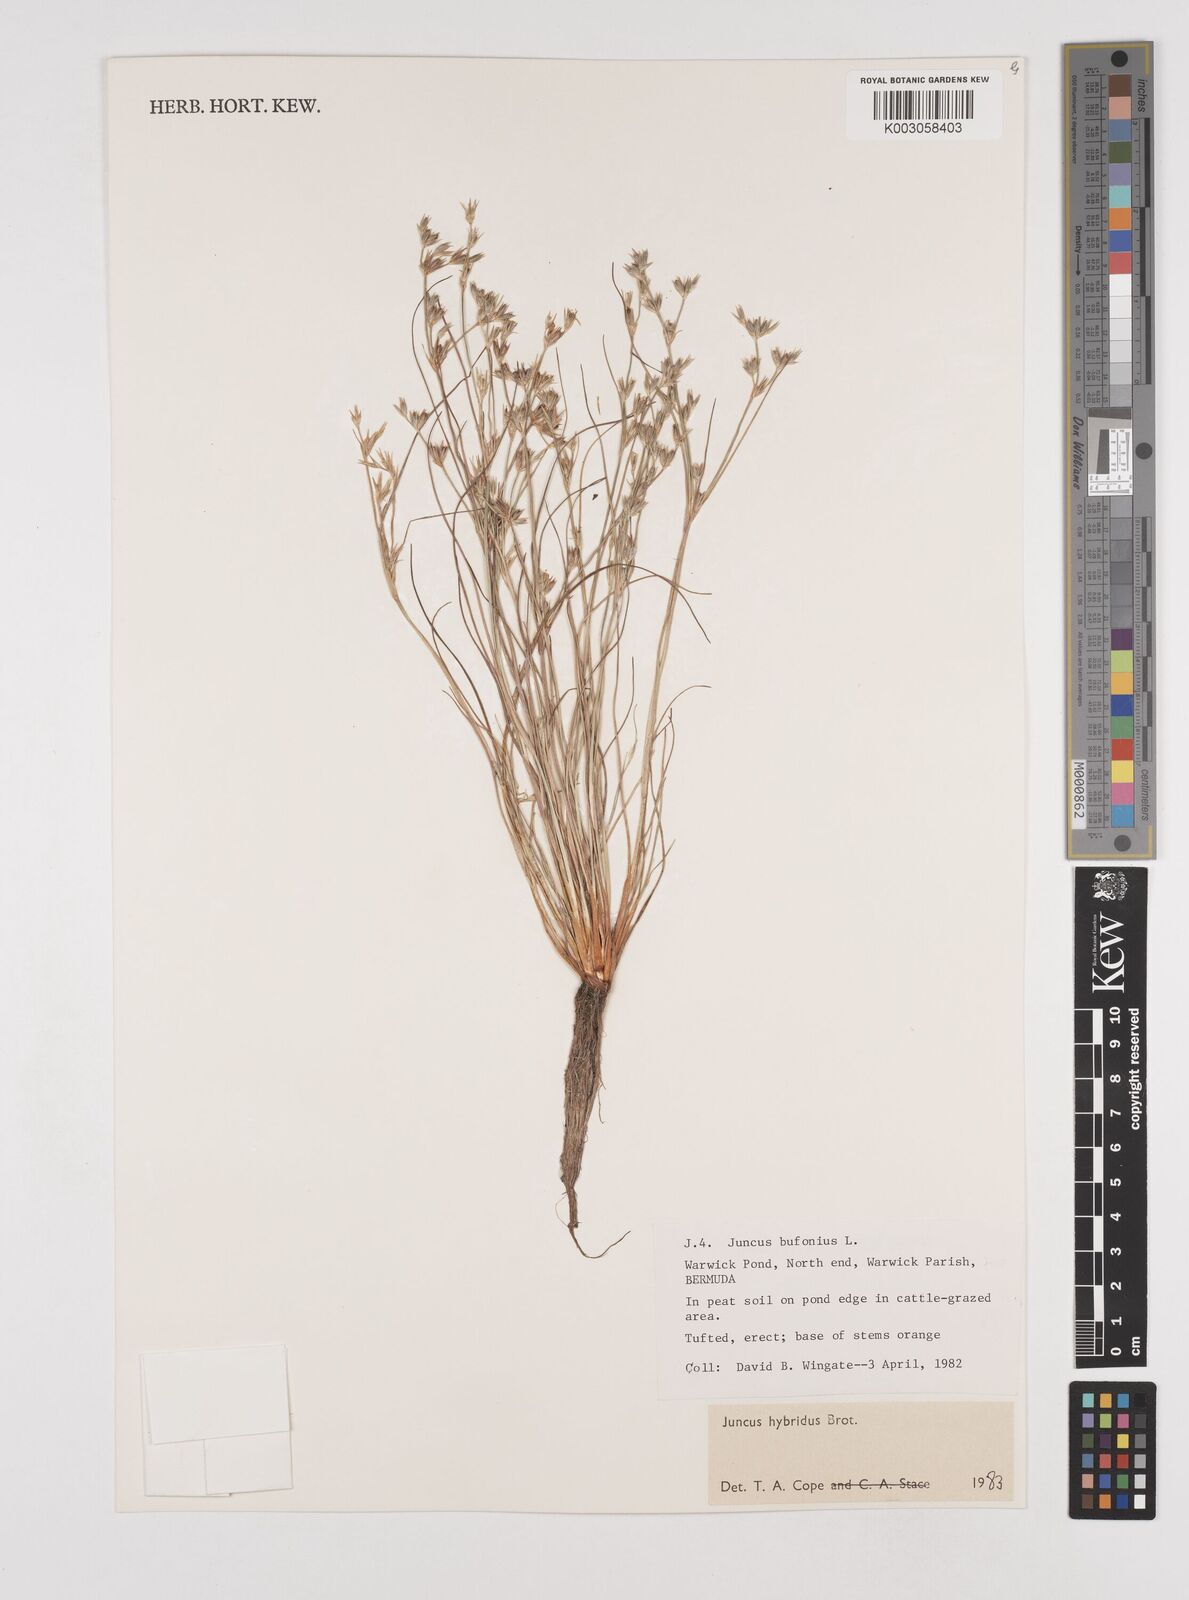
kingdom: Plantae
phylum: Tracheophyta
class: Liliopsida
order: Poales
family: Juncaceae
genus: Juncus
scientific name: Juncus hybridus
